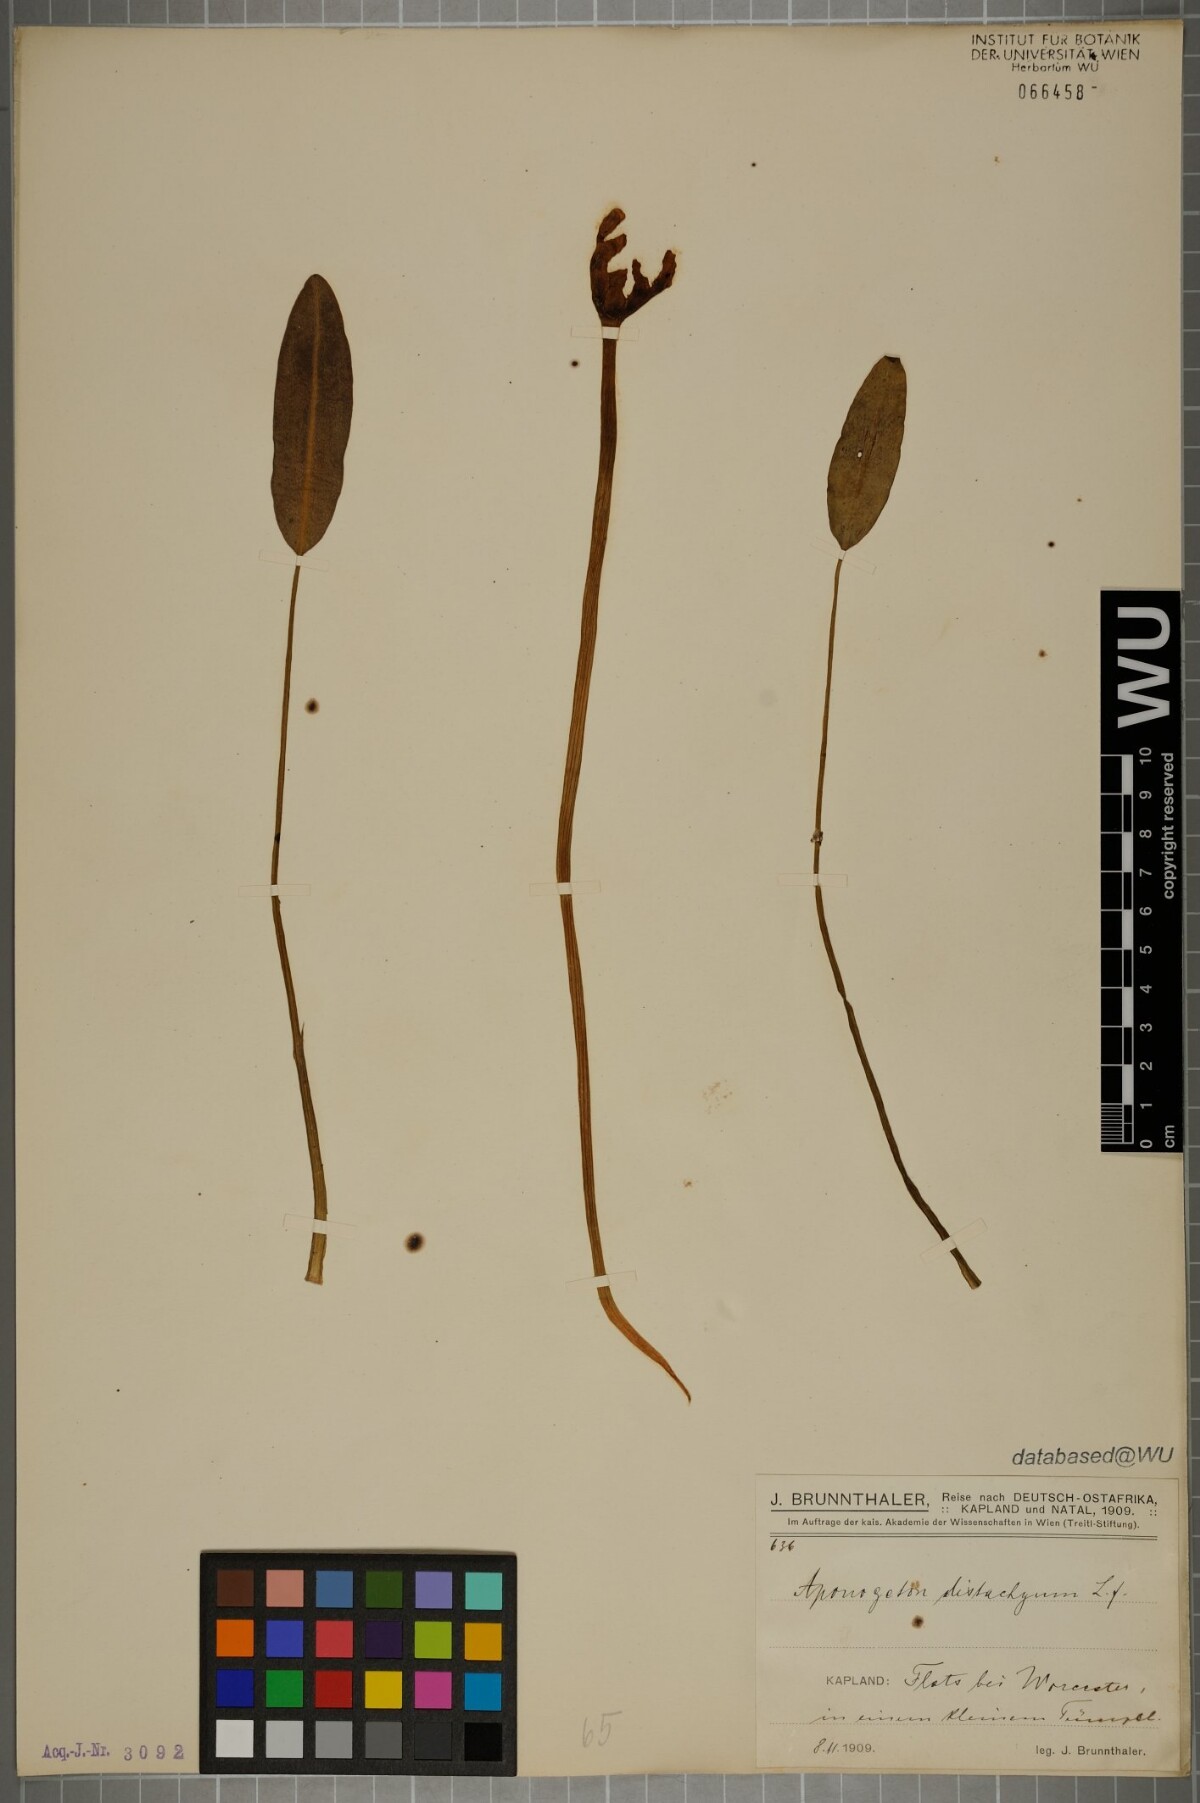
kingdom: Plantae
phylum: Tracheophyta
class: Liliopsida
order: Alismatales
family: Aponogetonaceae
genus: Aponogeton
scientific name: Aponogeton distachyos
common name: Cape-pondweed
